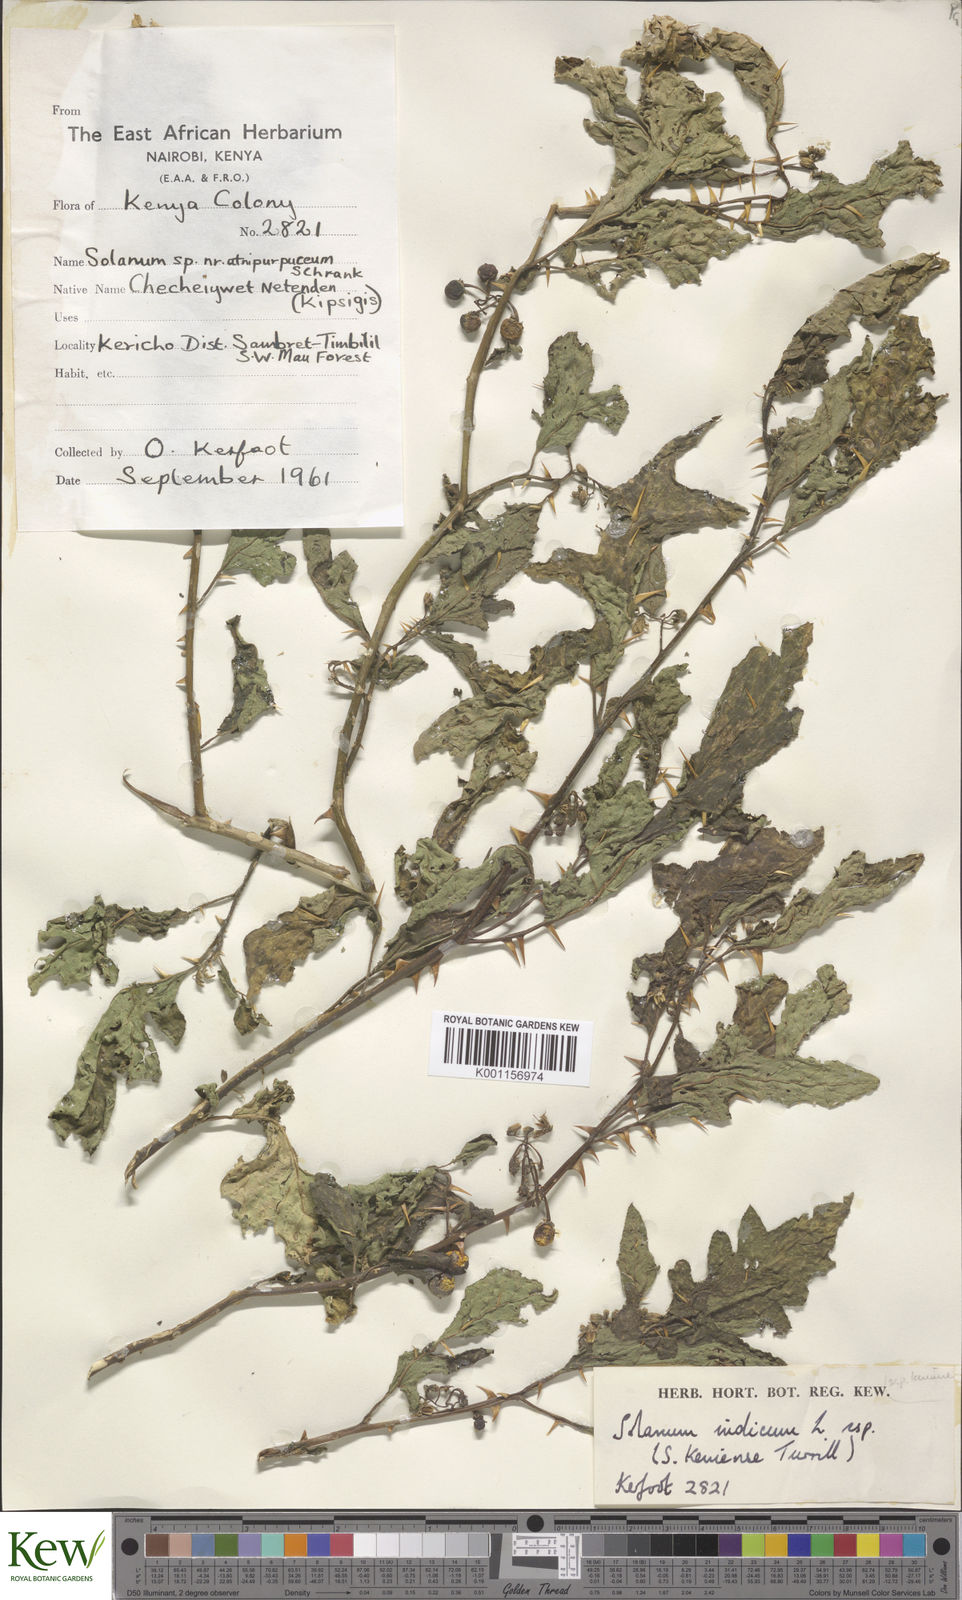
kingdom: Plantae
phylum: Tracheophyta
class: Magnoliopsida
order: Solanales
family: Solanaceae
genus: Solanum
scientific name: Solanum anguivi
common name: Forest bitterberry
